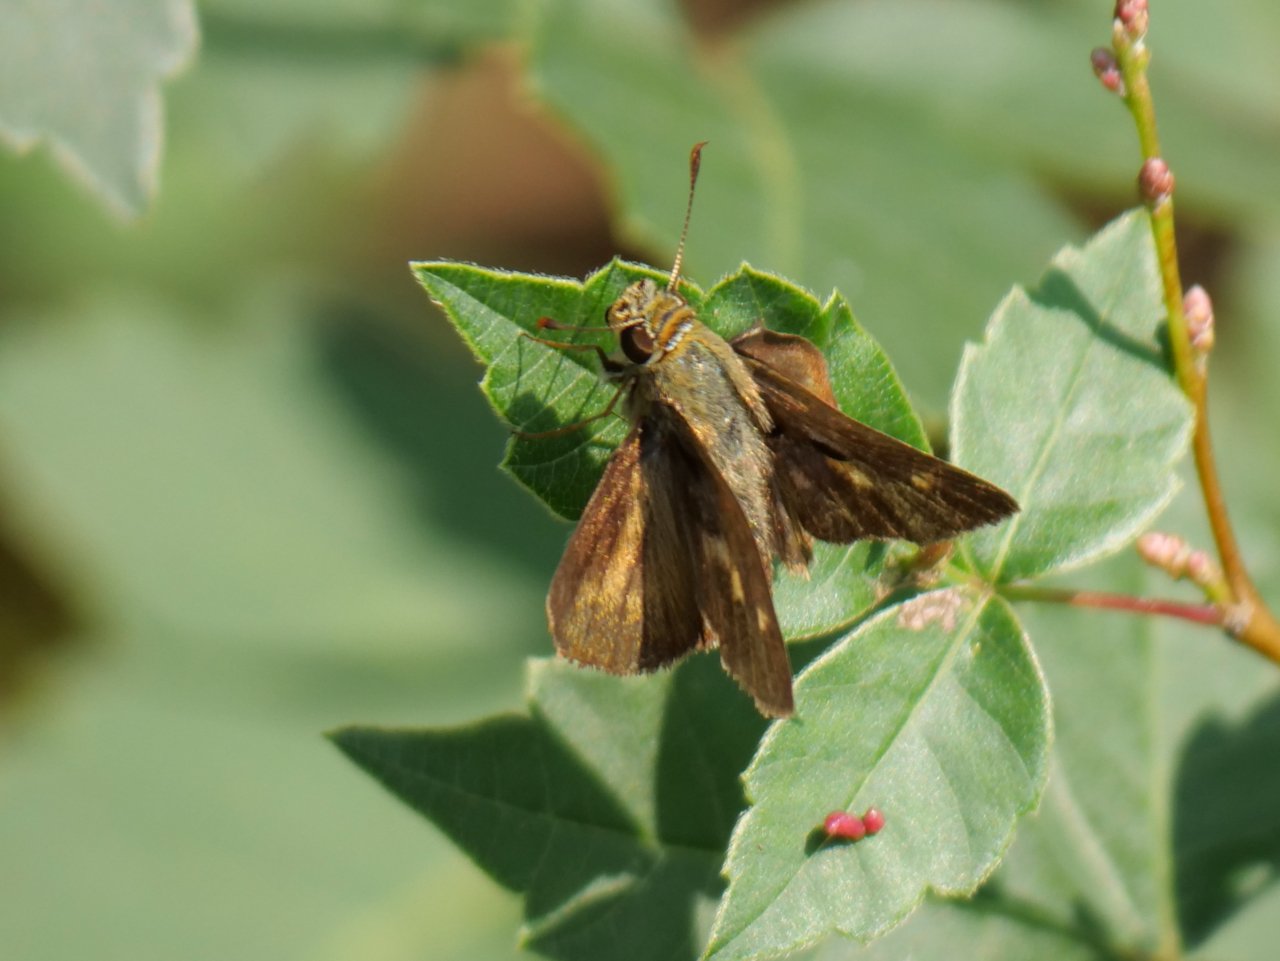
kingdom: Animalia
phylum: Arthropoda
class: Insecta
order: Lepidoptera
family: Hesperiidae
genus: Polites
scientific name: Polites egeremet
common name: Northern Broken-Dash
